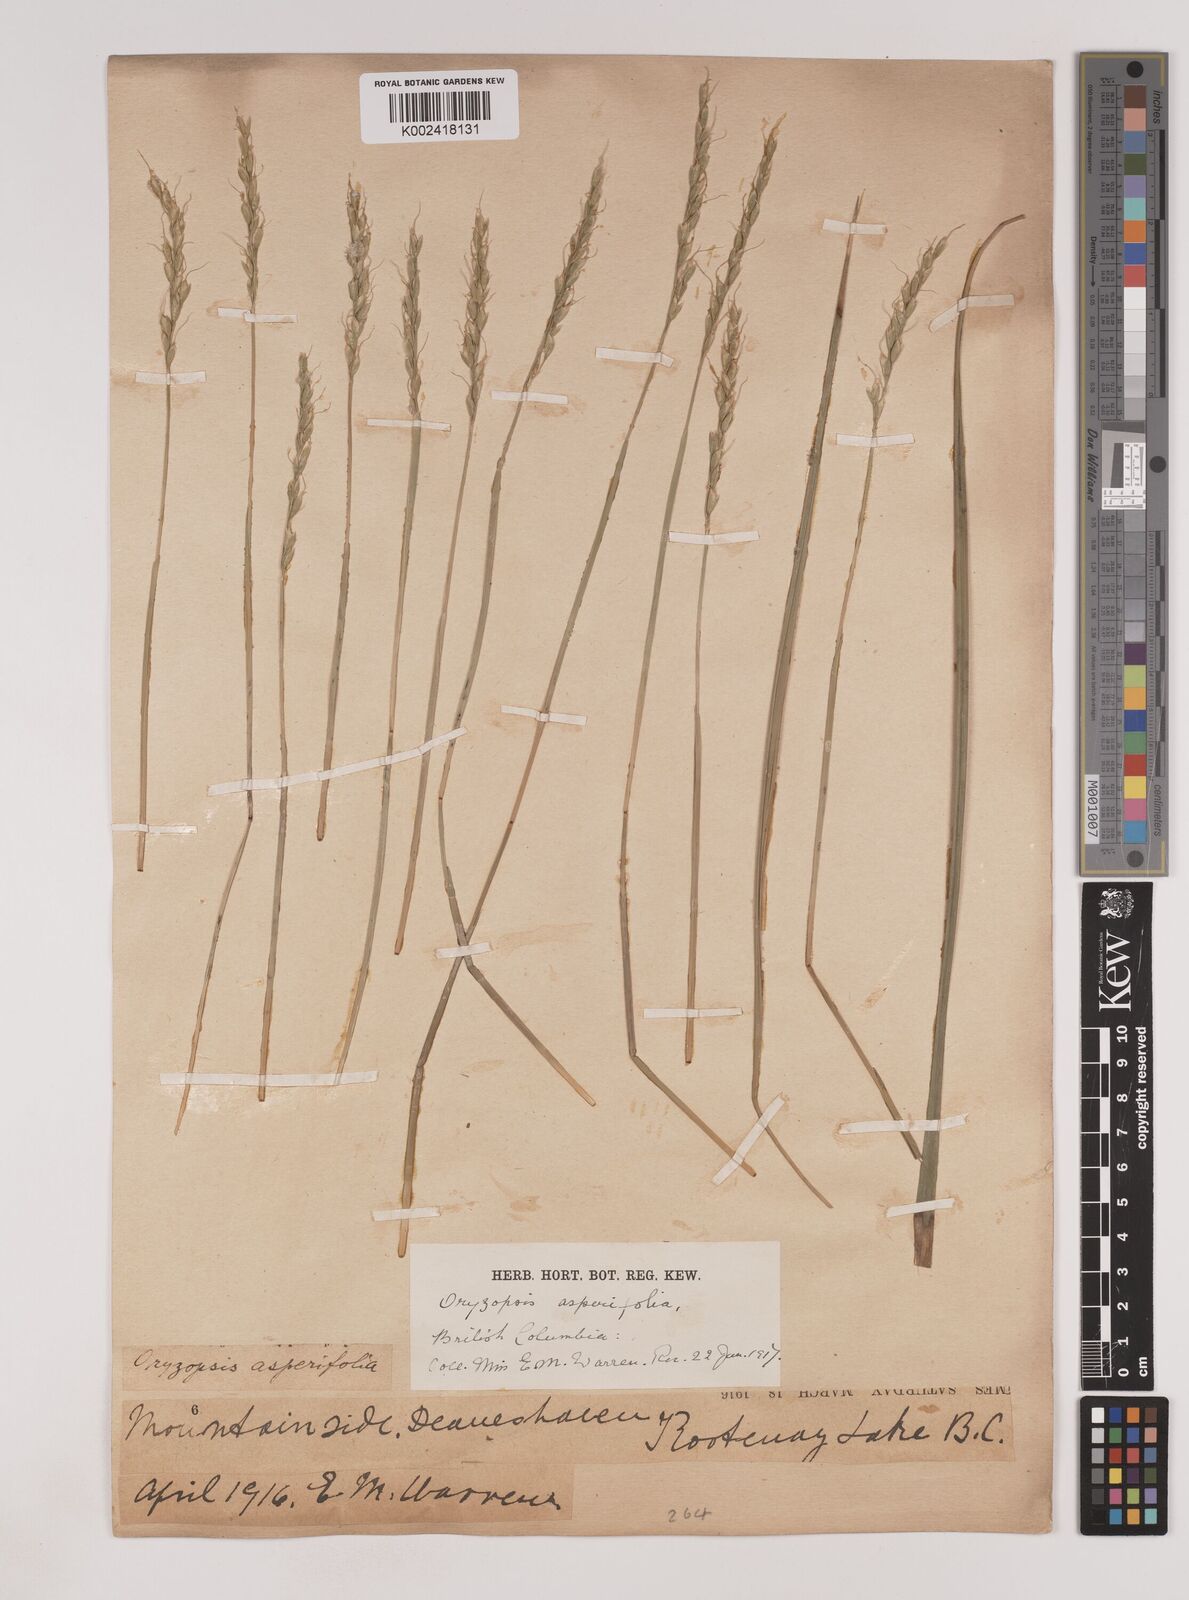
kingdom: Plantae
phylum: Tracheophyta
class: Liliopsida
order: Poales
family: Poaceae
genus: Oryzopsis
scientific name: Oryzopsis asperifolia
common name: Rough-leaved mountain rice
